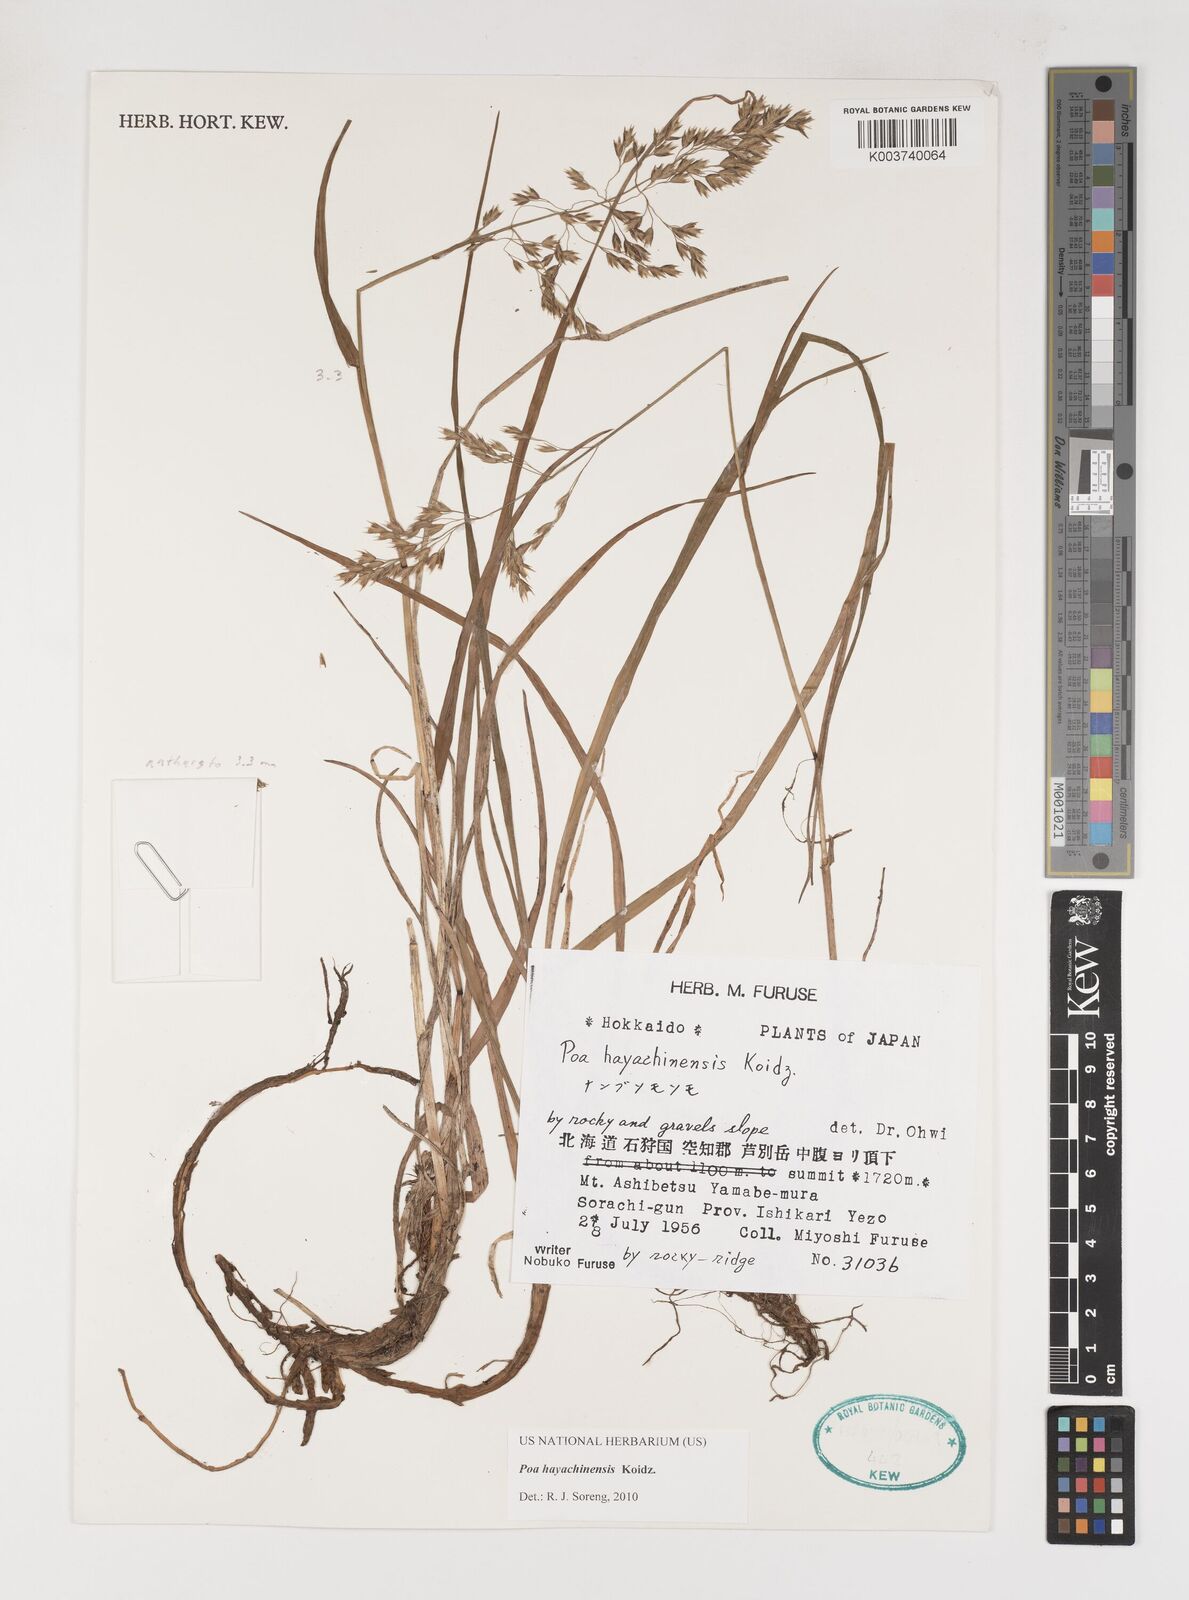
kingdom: Plantae
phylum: Tracheophyta
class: Liliopsida
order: Poales
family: Poaceae
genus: Dupontiopsis
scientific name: Dupontiopsis hayachinensis
